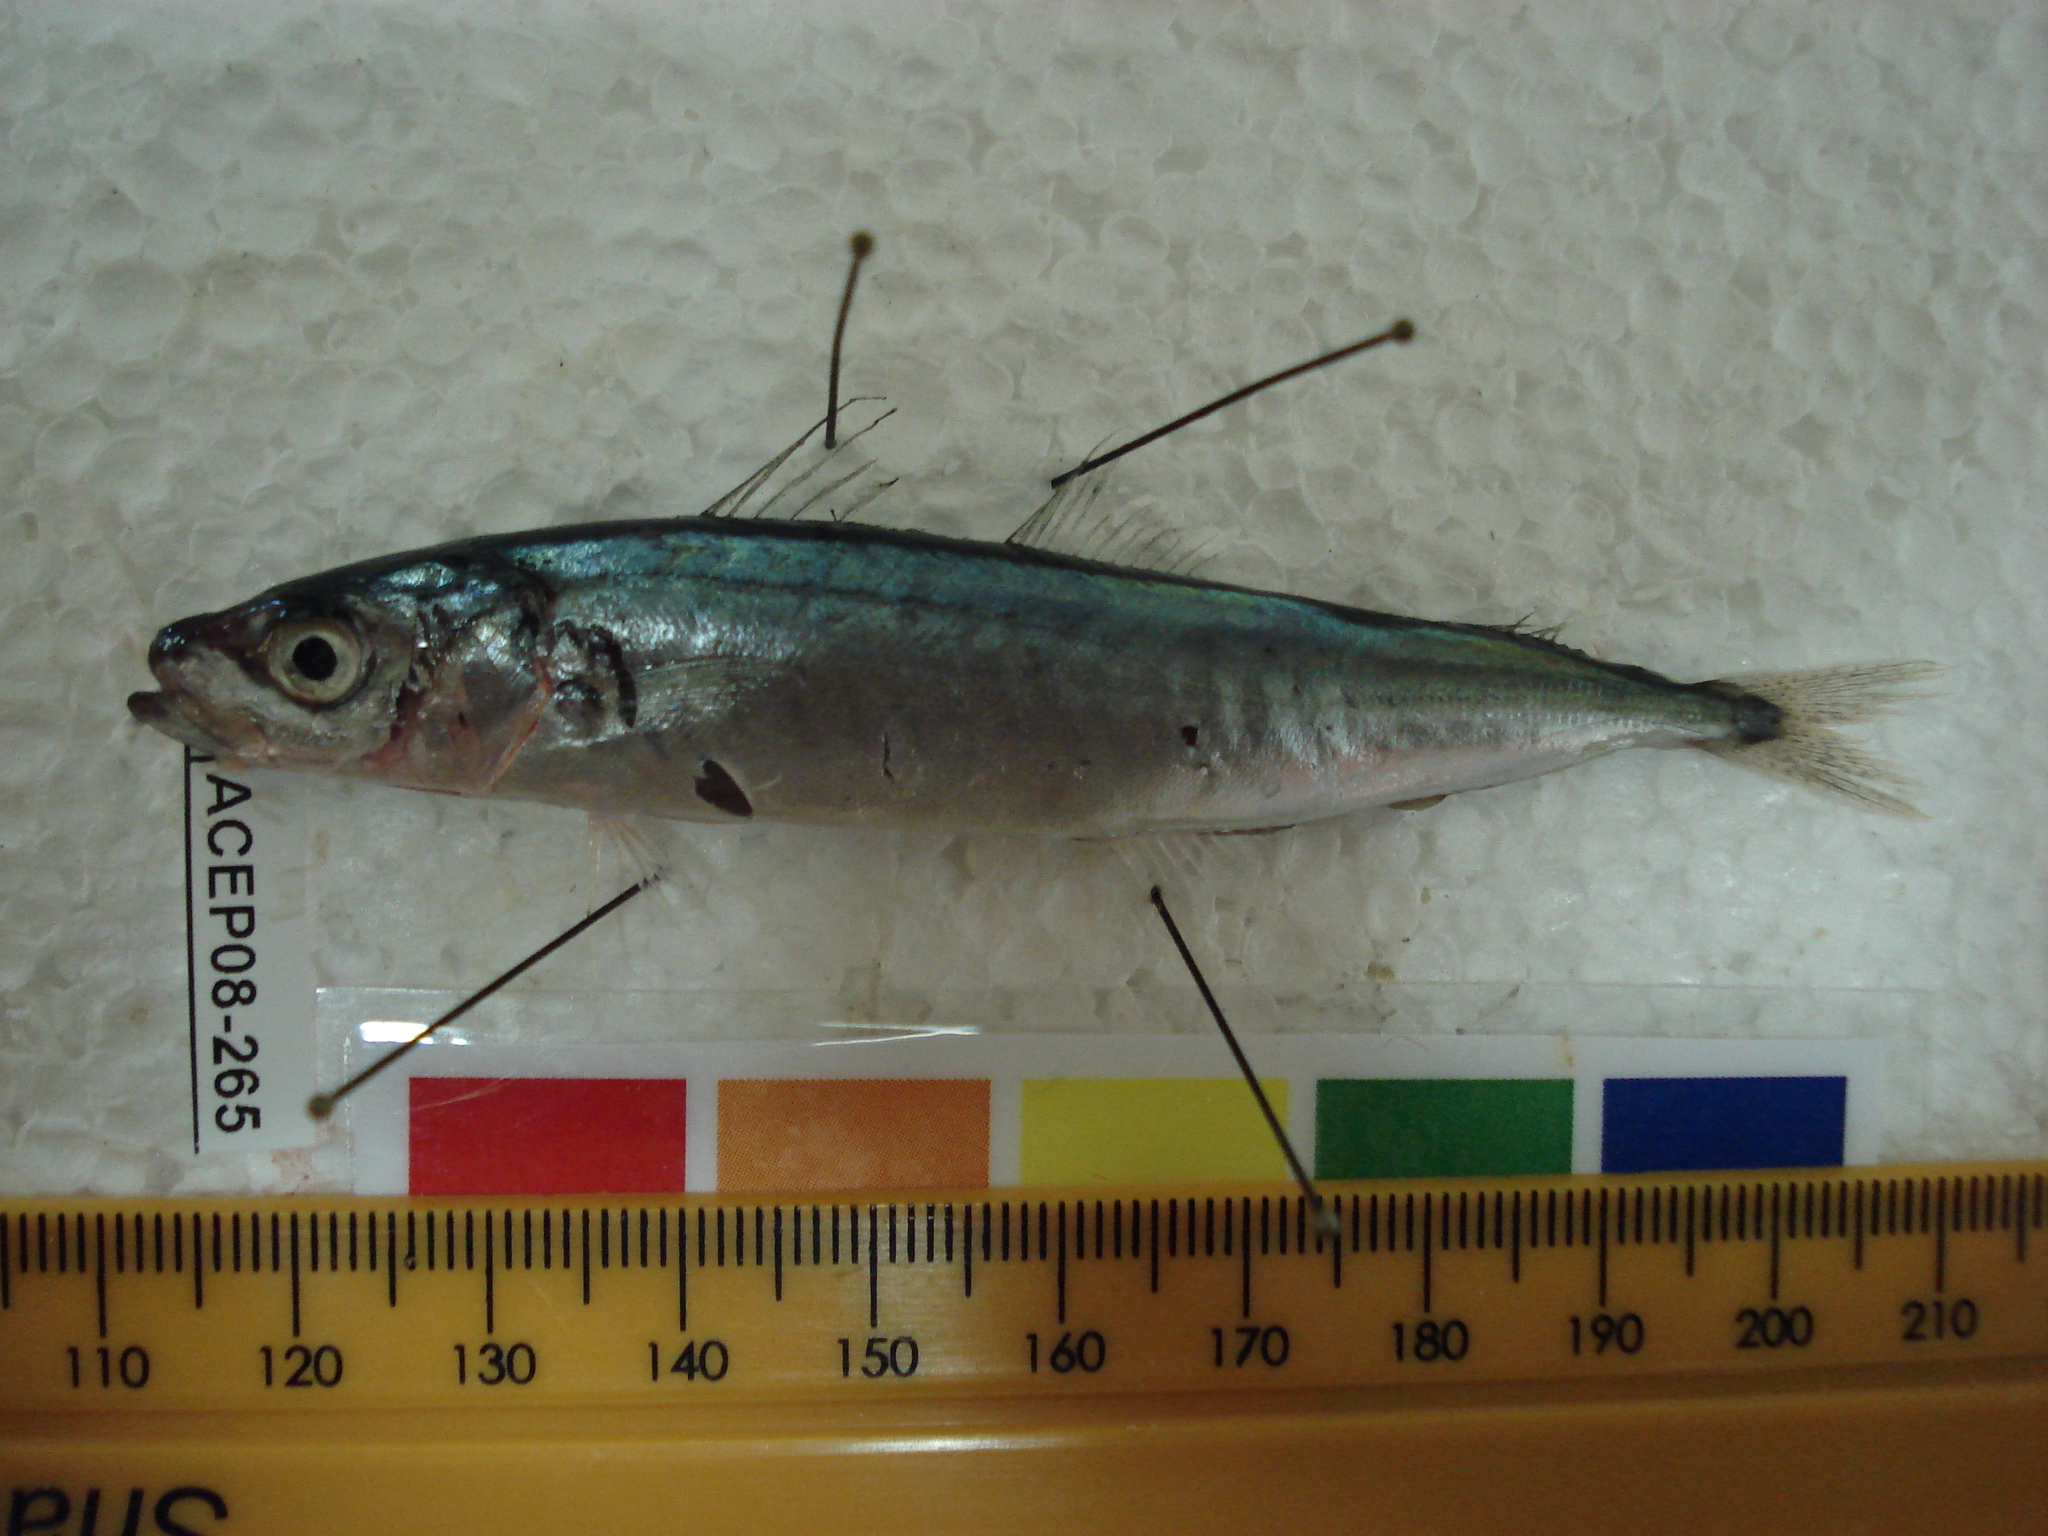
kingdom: Animalia
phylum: Chordata
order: Perciformes
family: Carangidae
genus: Decapterus
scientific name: Decapterus macrosoma
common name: Shortfin scad
